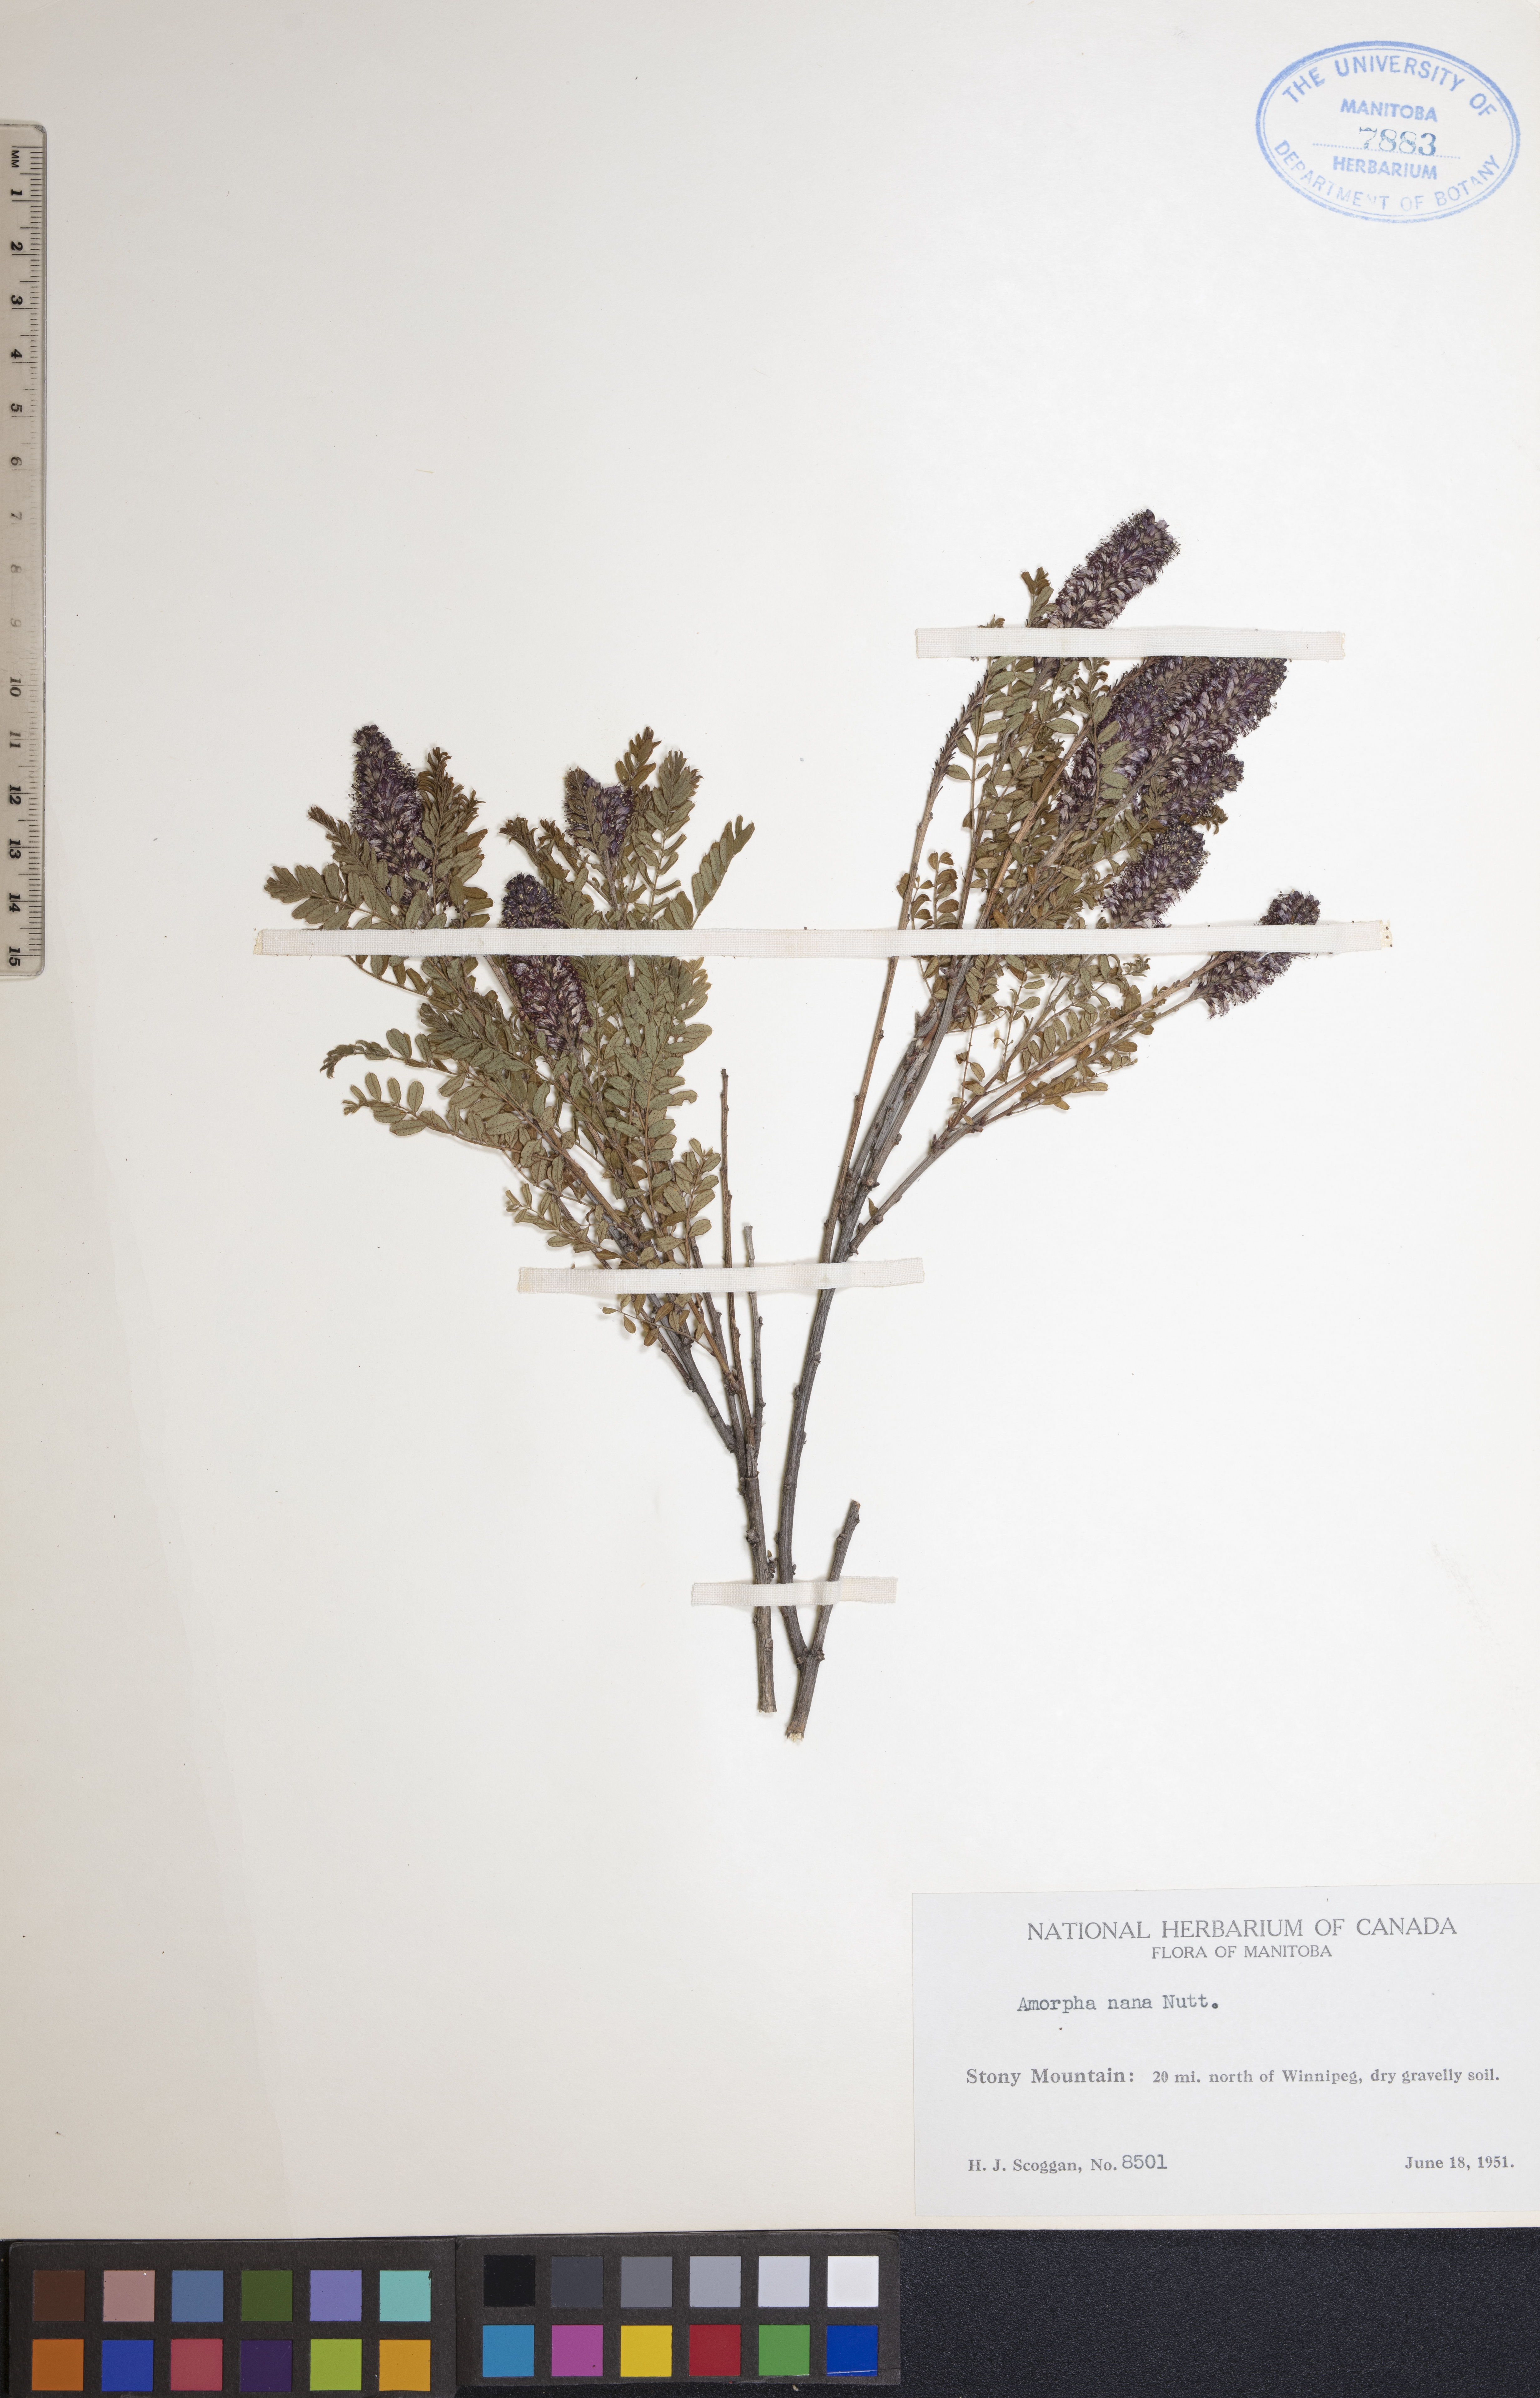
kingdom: Plantae
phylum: Tracheophyta
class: Magnoliopsida
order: Fabales
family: Fabaceae
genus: Amorpha
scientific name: Amorpha nana
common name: Fragrant false indigo
